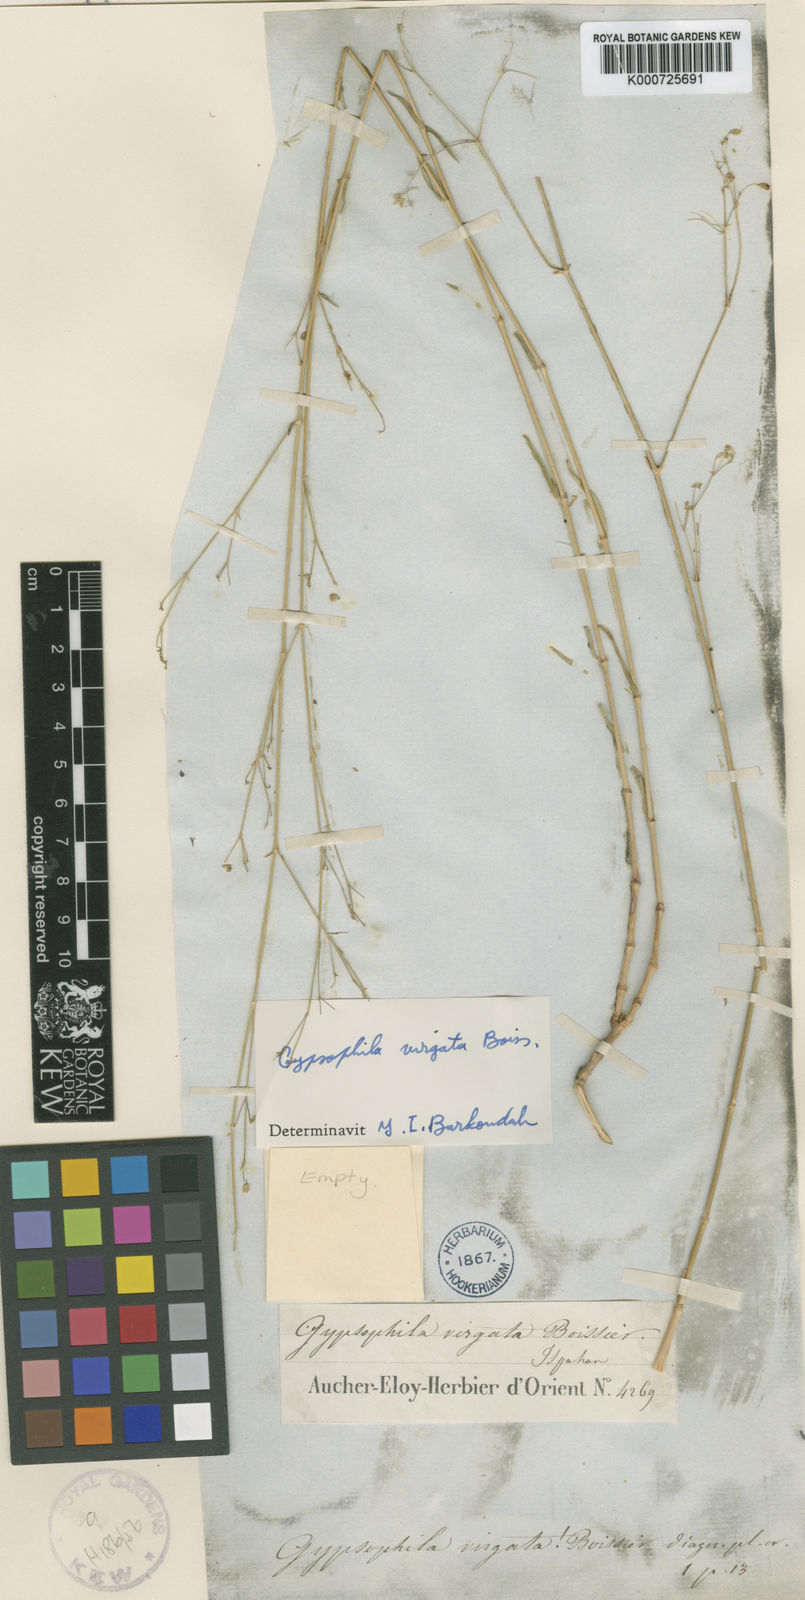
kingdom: Plantae
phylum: Tracheophyta
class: Magnoliopsida
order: Caryophyllales
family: Caryophyllaceae
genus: Gypsophila
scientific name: Gypsophila virgata
